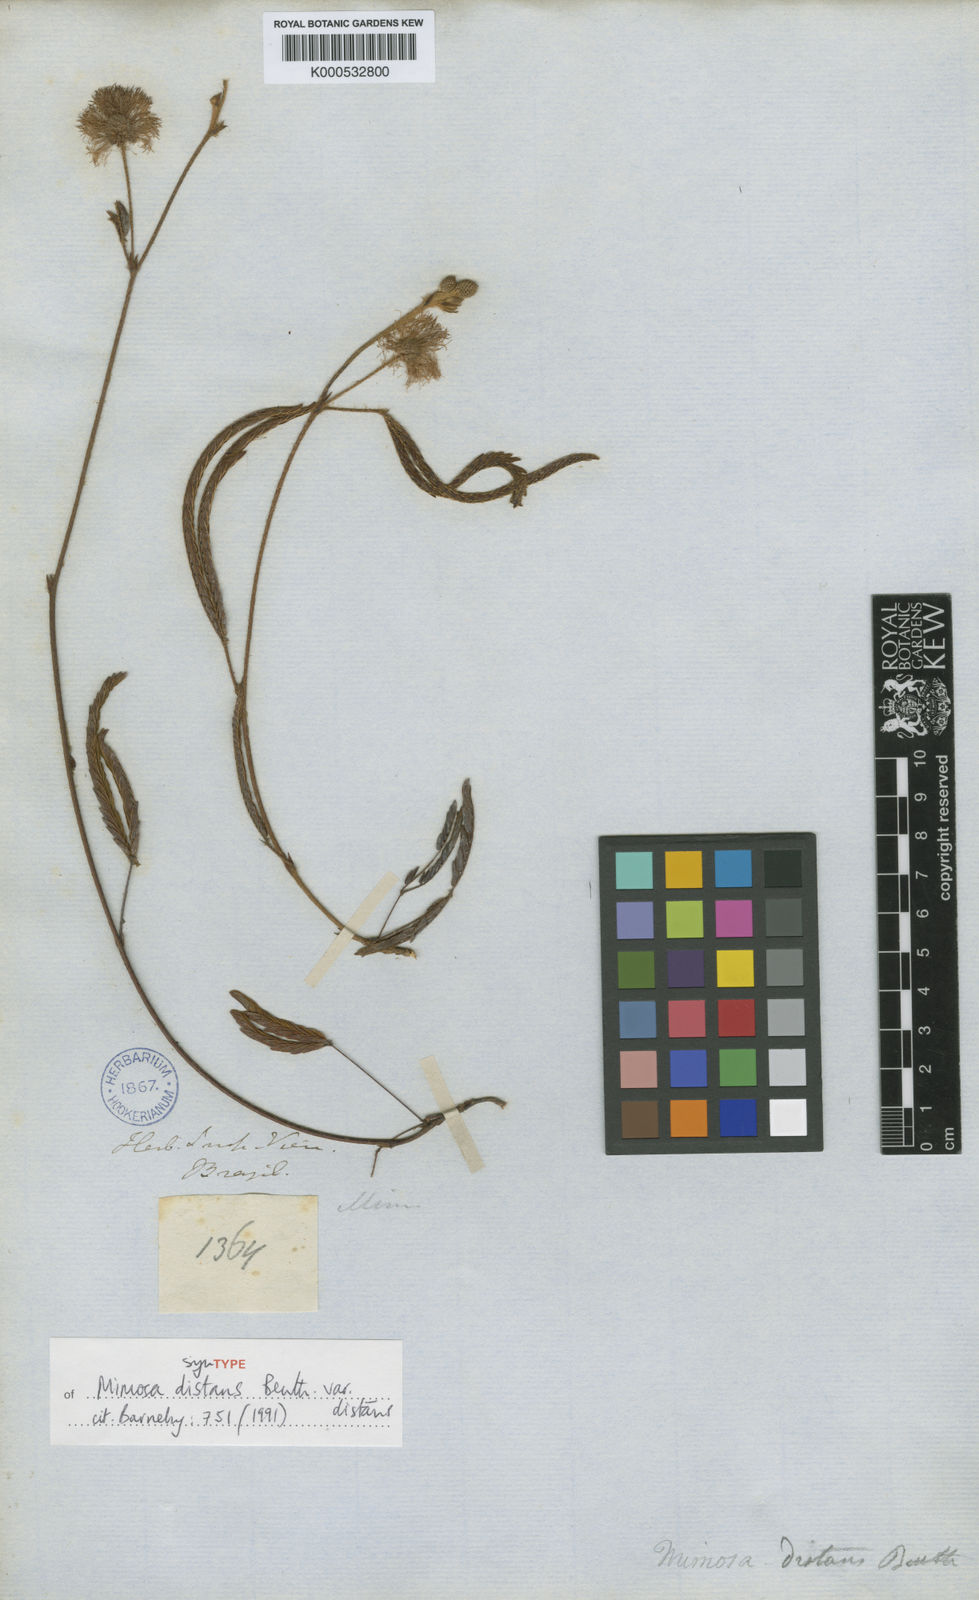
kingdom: Plantae
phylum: Tracheophyta
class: Magnoliopsida
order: Fabales
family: Fabaceae
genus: Mimosa
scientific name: Mimosa distans
